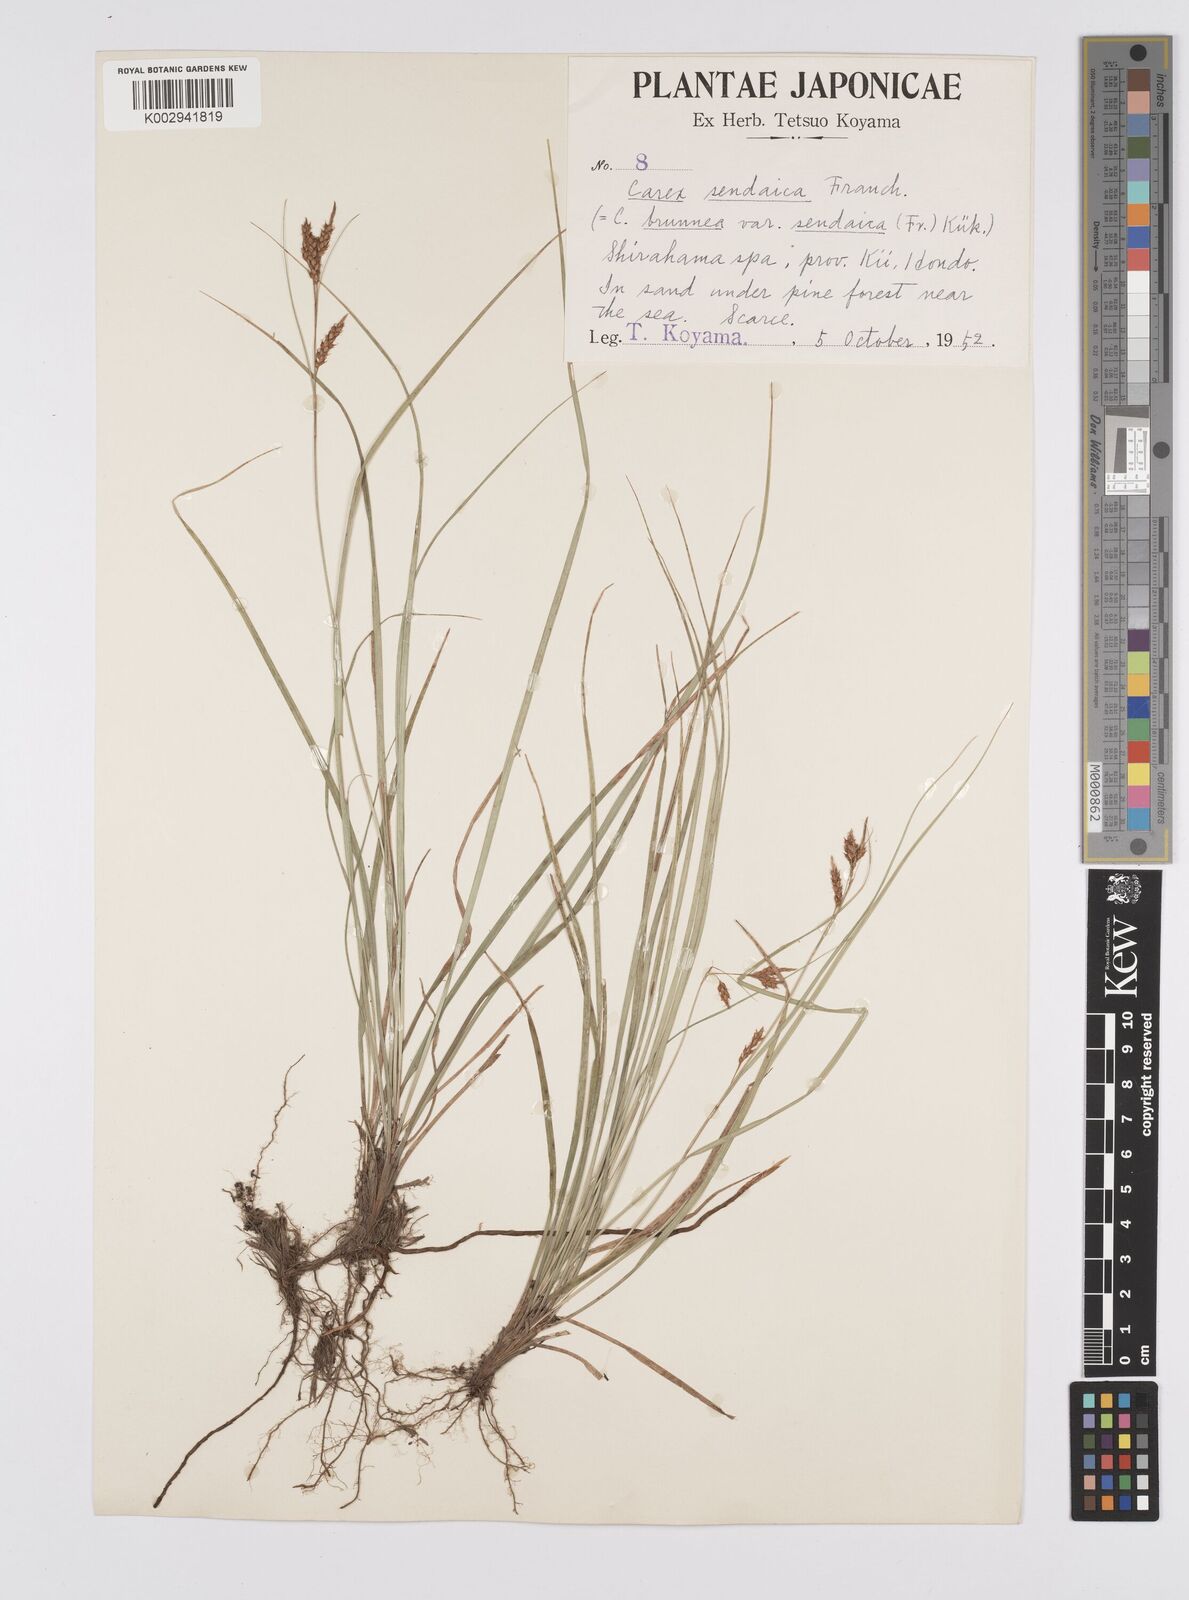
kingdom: Plantae
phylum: Tracheophyta
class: Liliopsida
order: Poales
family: Cyperaceae
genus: Carex
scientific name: Carex brunnea
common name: Greater brown sedge
